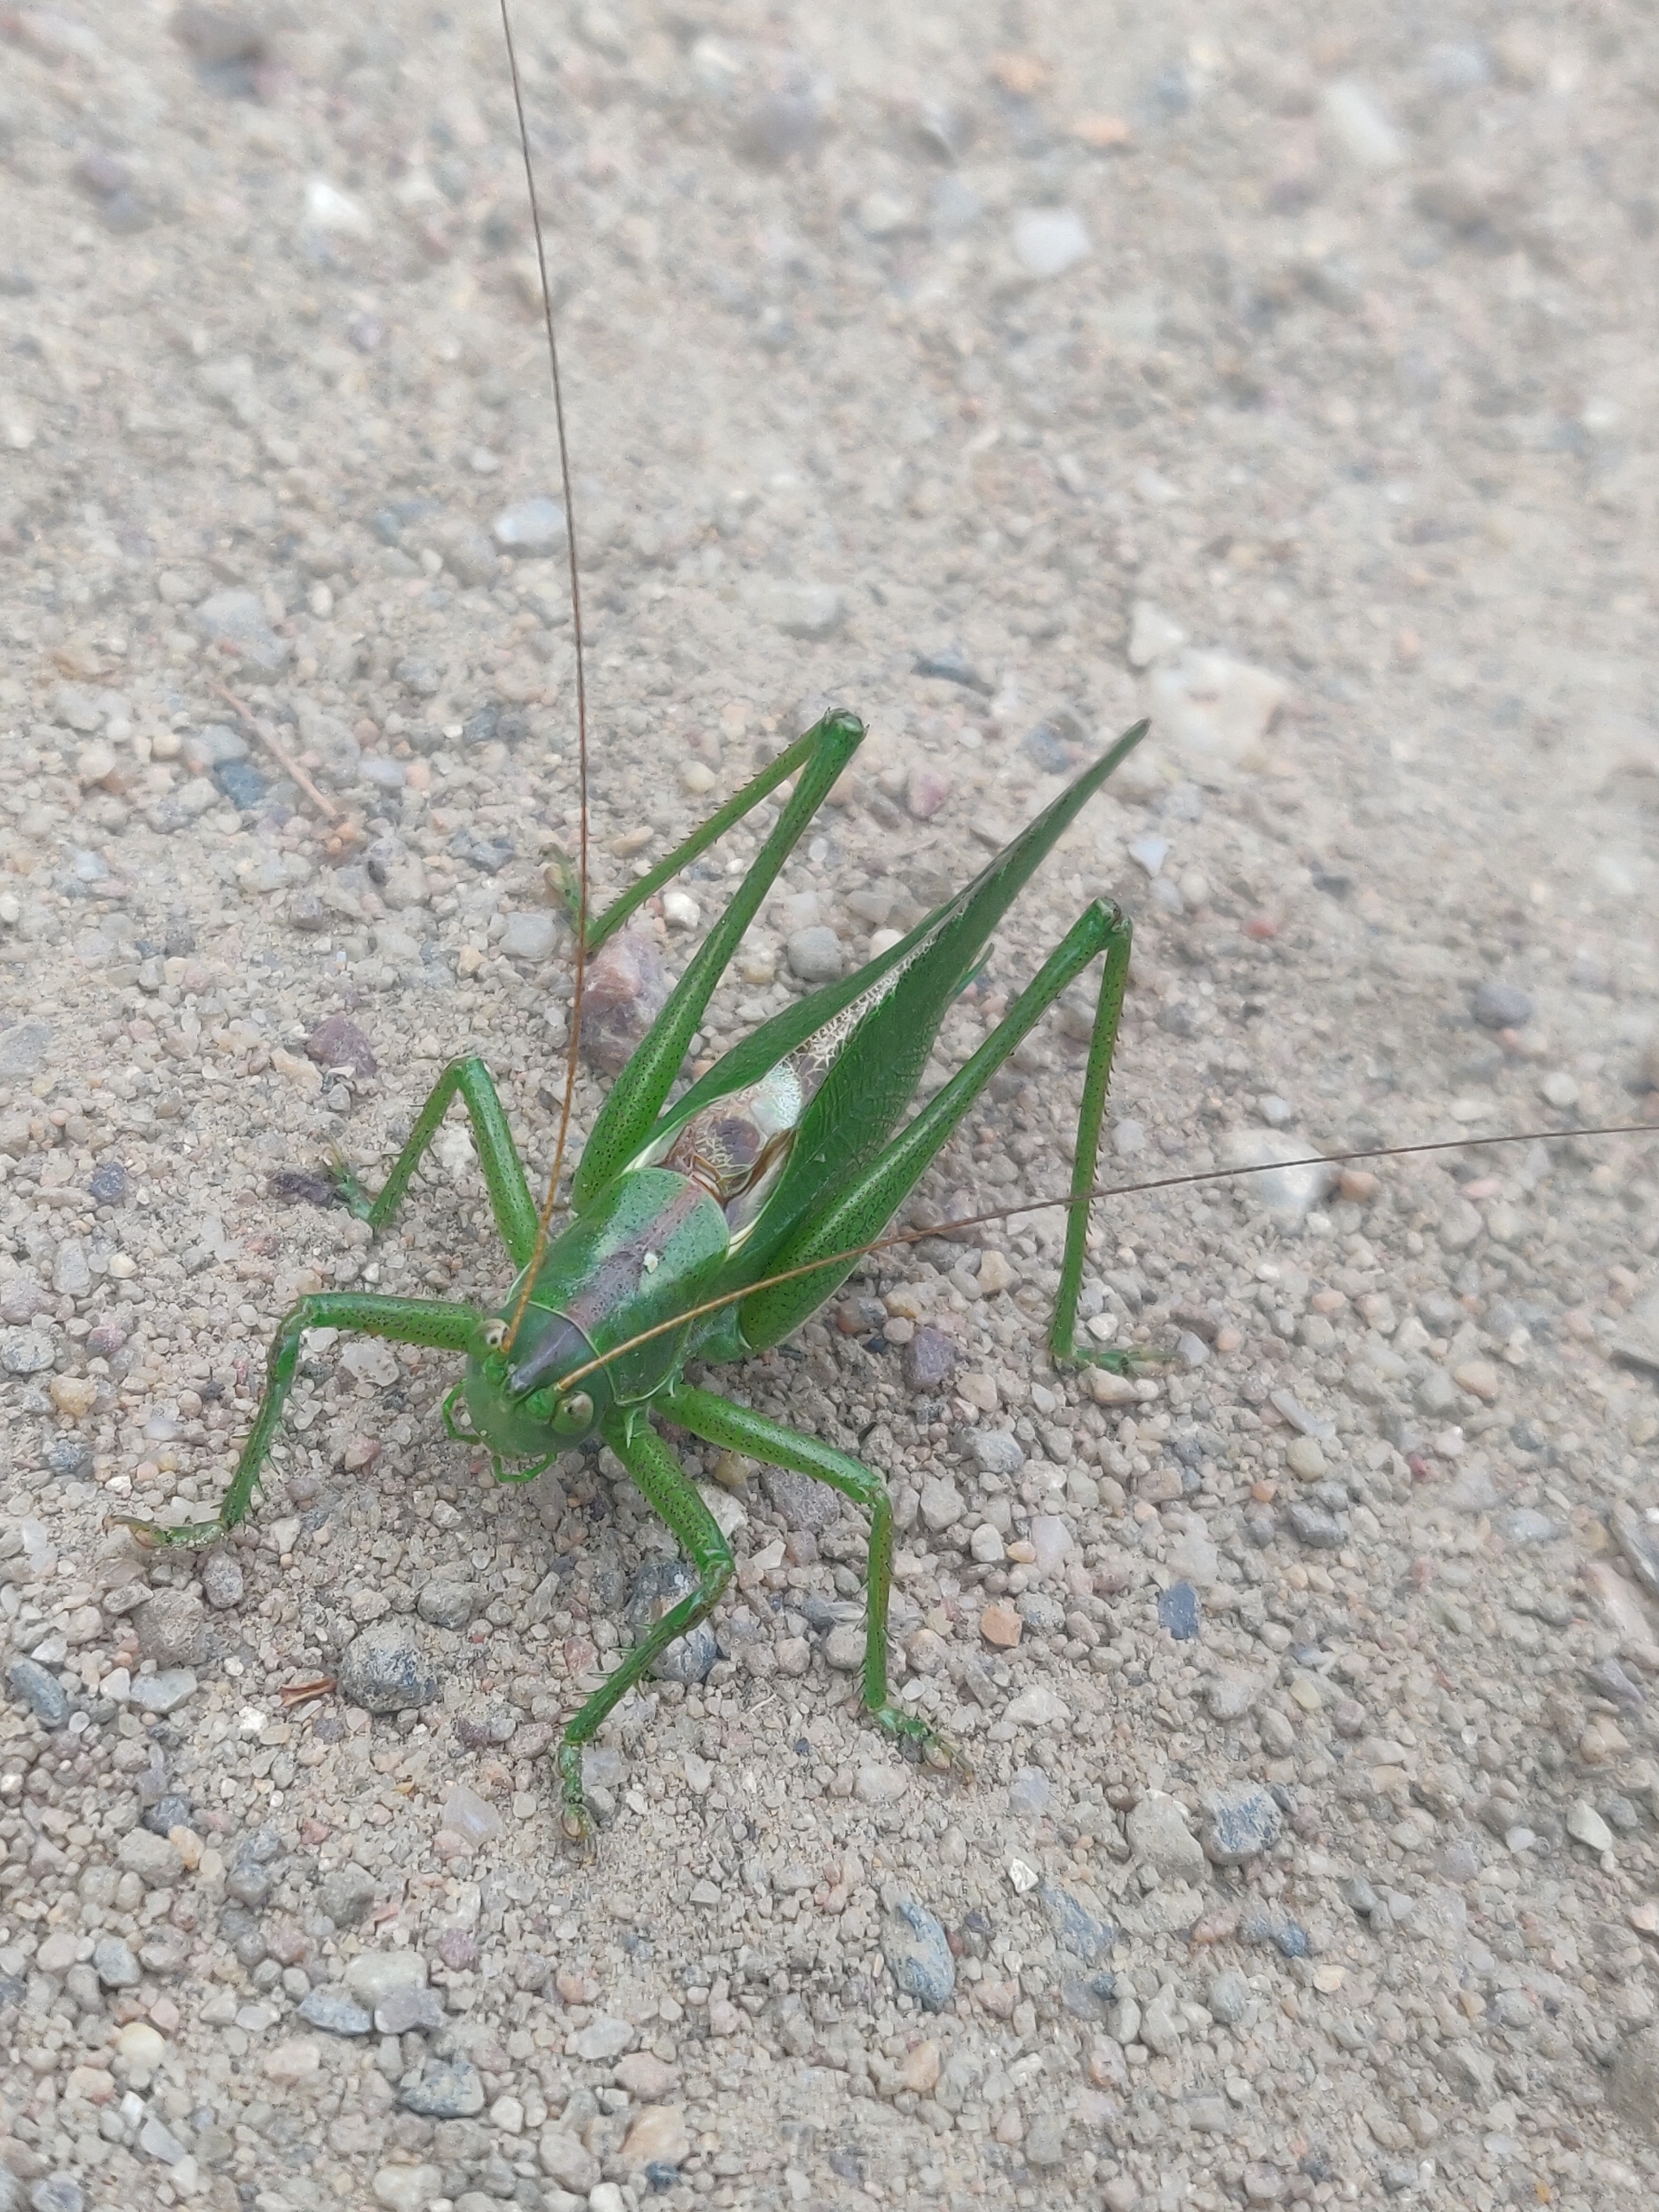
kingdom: Animalia
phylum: Arthropoda
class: Insecta
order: Orthoptera
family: Tettigoniidae
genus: Tettigonia
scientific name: Tettigonia viridissima
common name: Stor grøn løvgræshoppe
